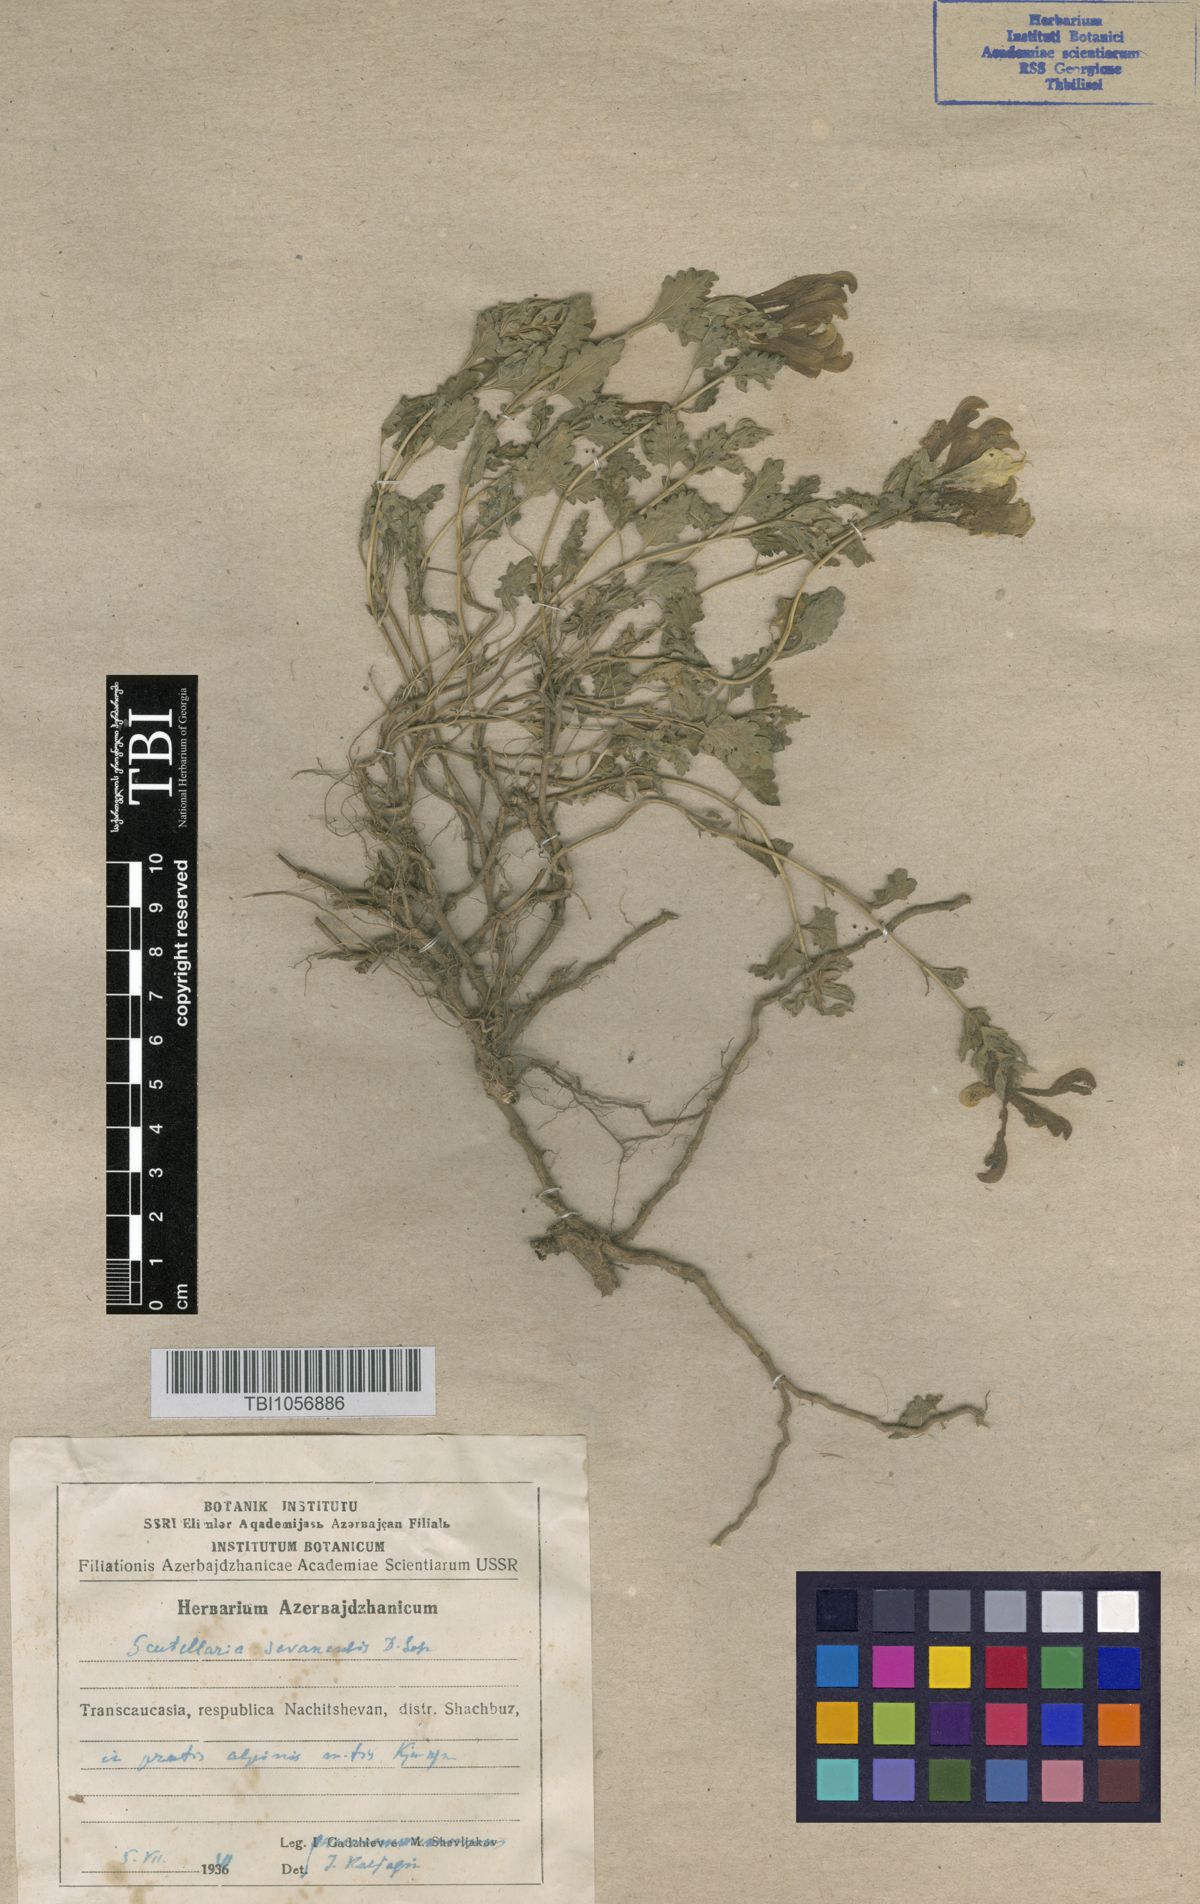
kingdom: Plantae
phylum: Tracheophyta
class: Magnoliopsida
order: Lamiales
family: Lamiaceae
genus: Scutellaria
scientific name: Scutellaria sevanensis
